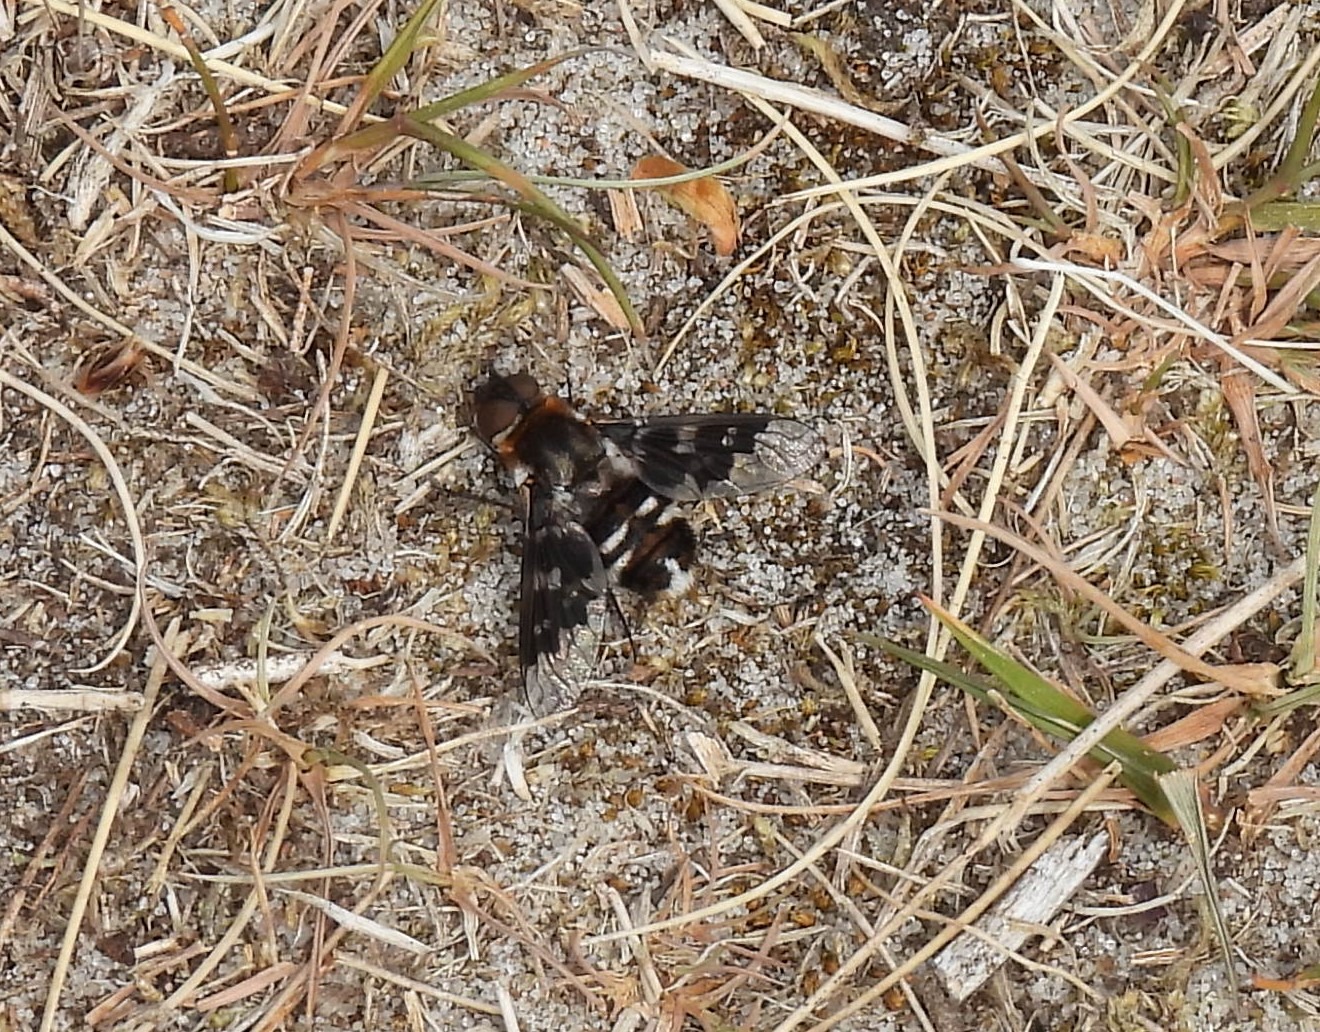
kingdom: Animalia
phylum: Arthropoda
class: Insecta
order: Diptera
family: Bombyliidae
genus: Thyridanthrax
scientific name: Thyridanthrax fenestratus
